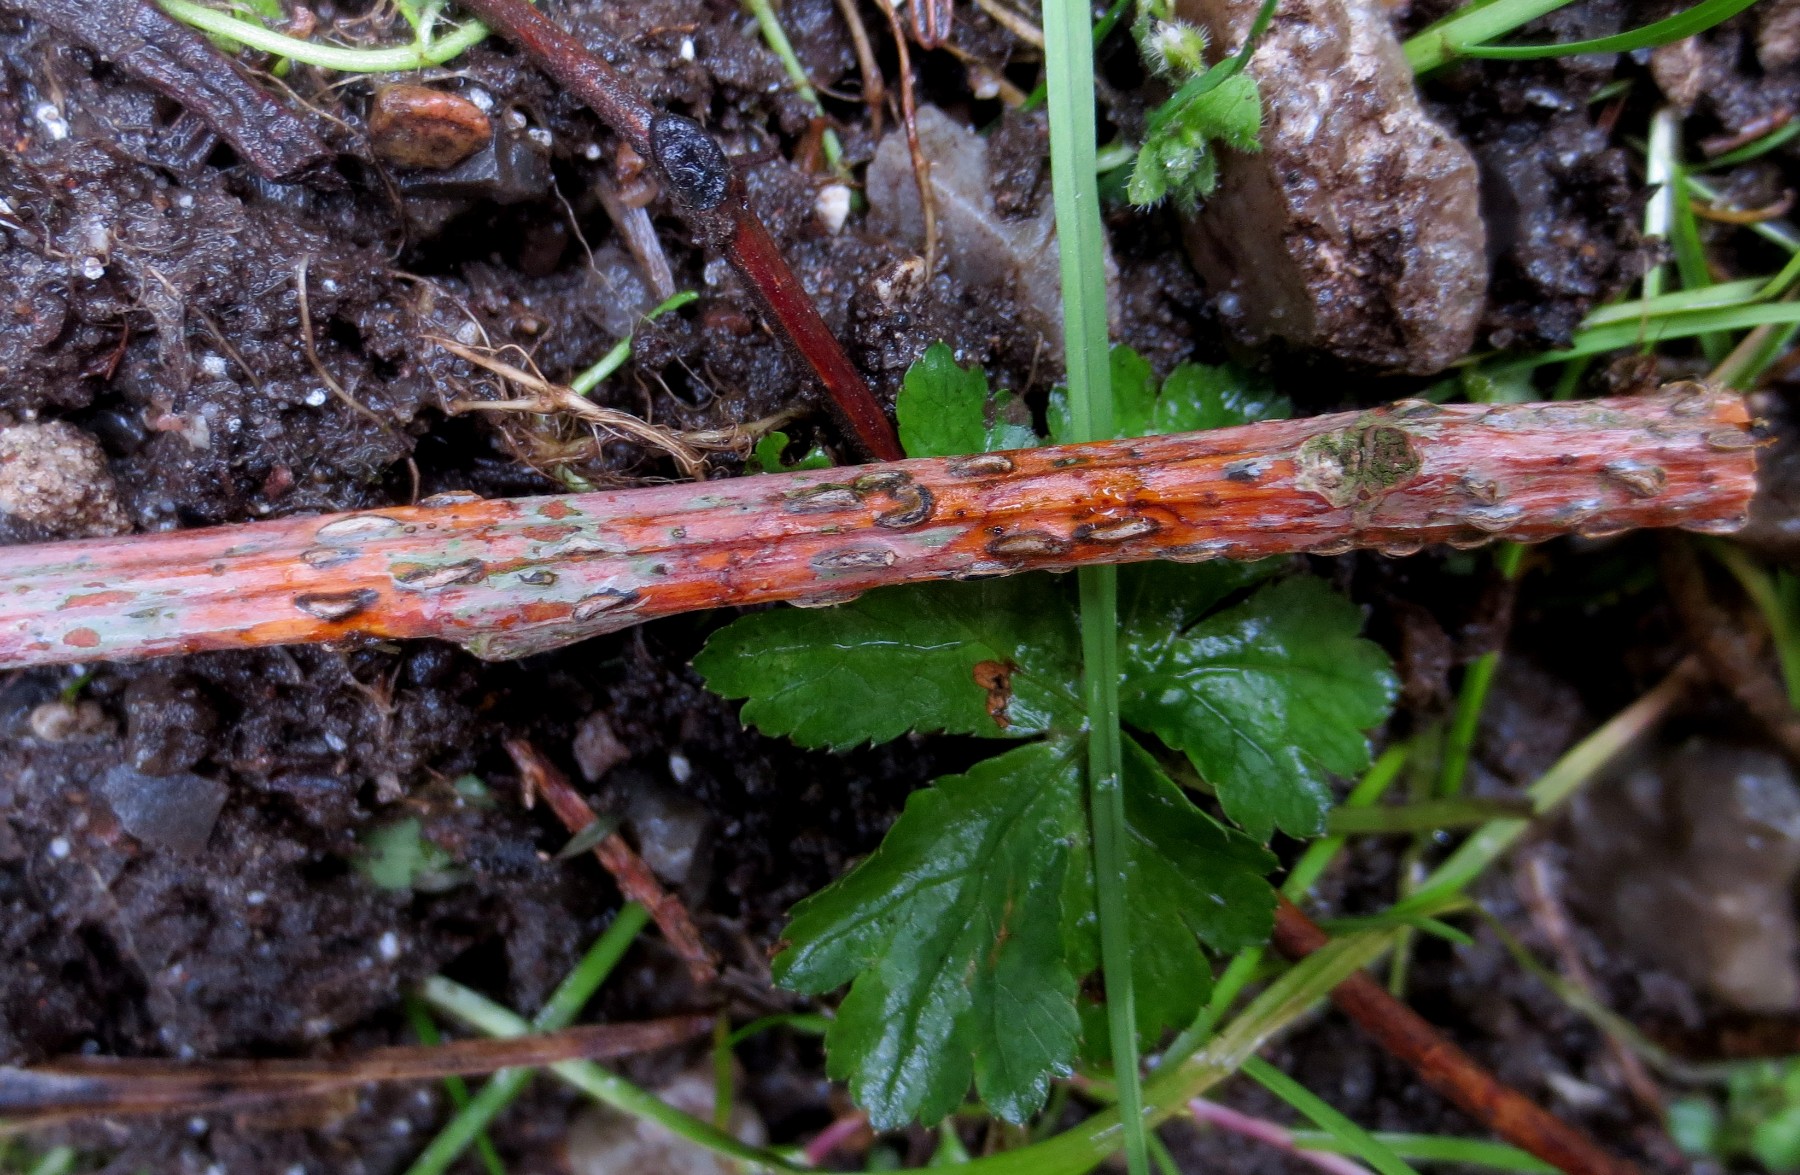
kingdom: Fungi
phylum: Ascomycota
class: Leotiomycetes
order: Rhytismatales
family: Rhytismataceae
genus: Colpoma
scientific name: Colpoma quercinum
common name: ege-sprækkeskive
